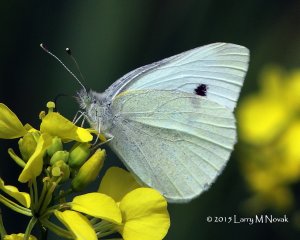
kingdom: Animalia
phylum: Arthropoda
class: Insecta
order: Lepidoptera
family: Pieridae
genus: Pieris
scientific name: Pieris rapae
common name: Cabbage White
